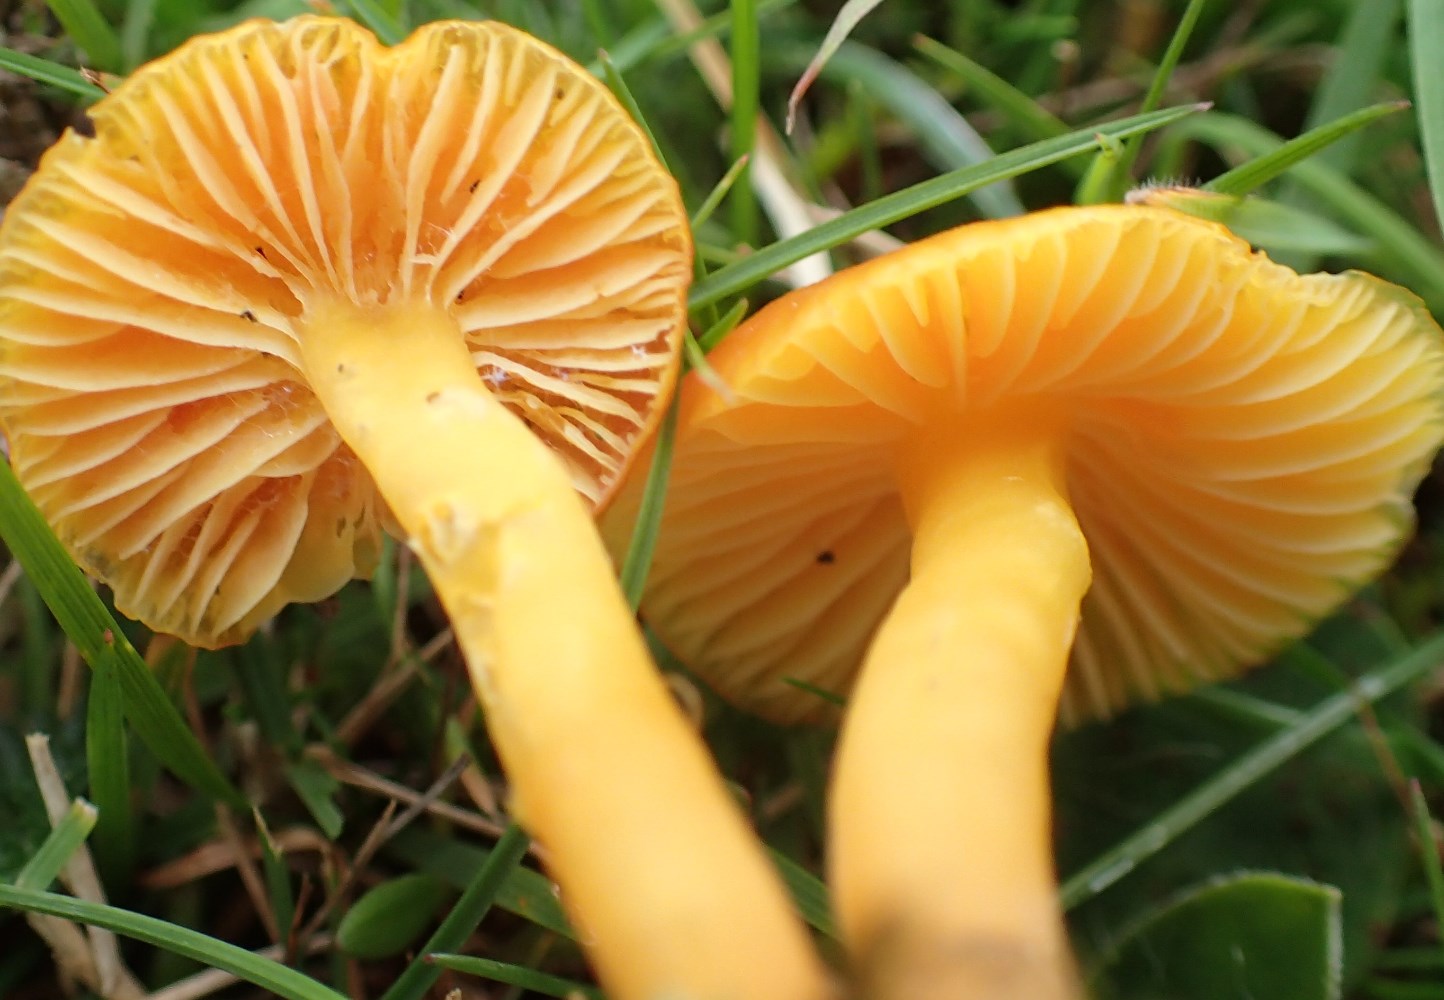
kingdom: Fungi
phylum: Basidiomycota
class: Agaricomycetes
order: Agaricales
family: Hygrophoraceae
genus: Hygrocybe
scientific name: Hygrocybe chlorophana
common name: gul vokshat
